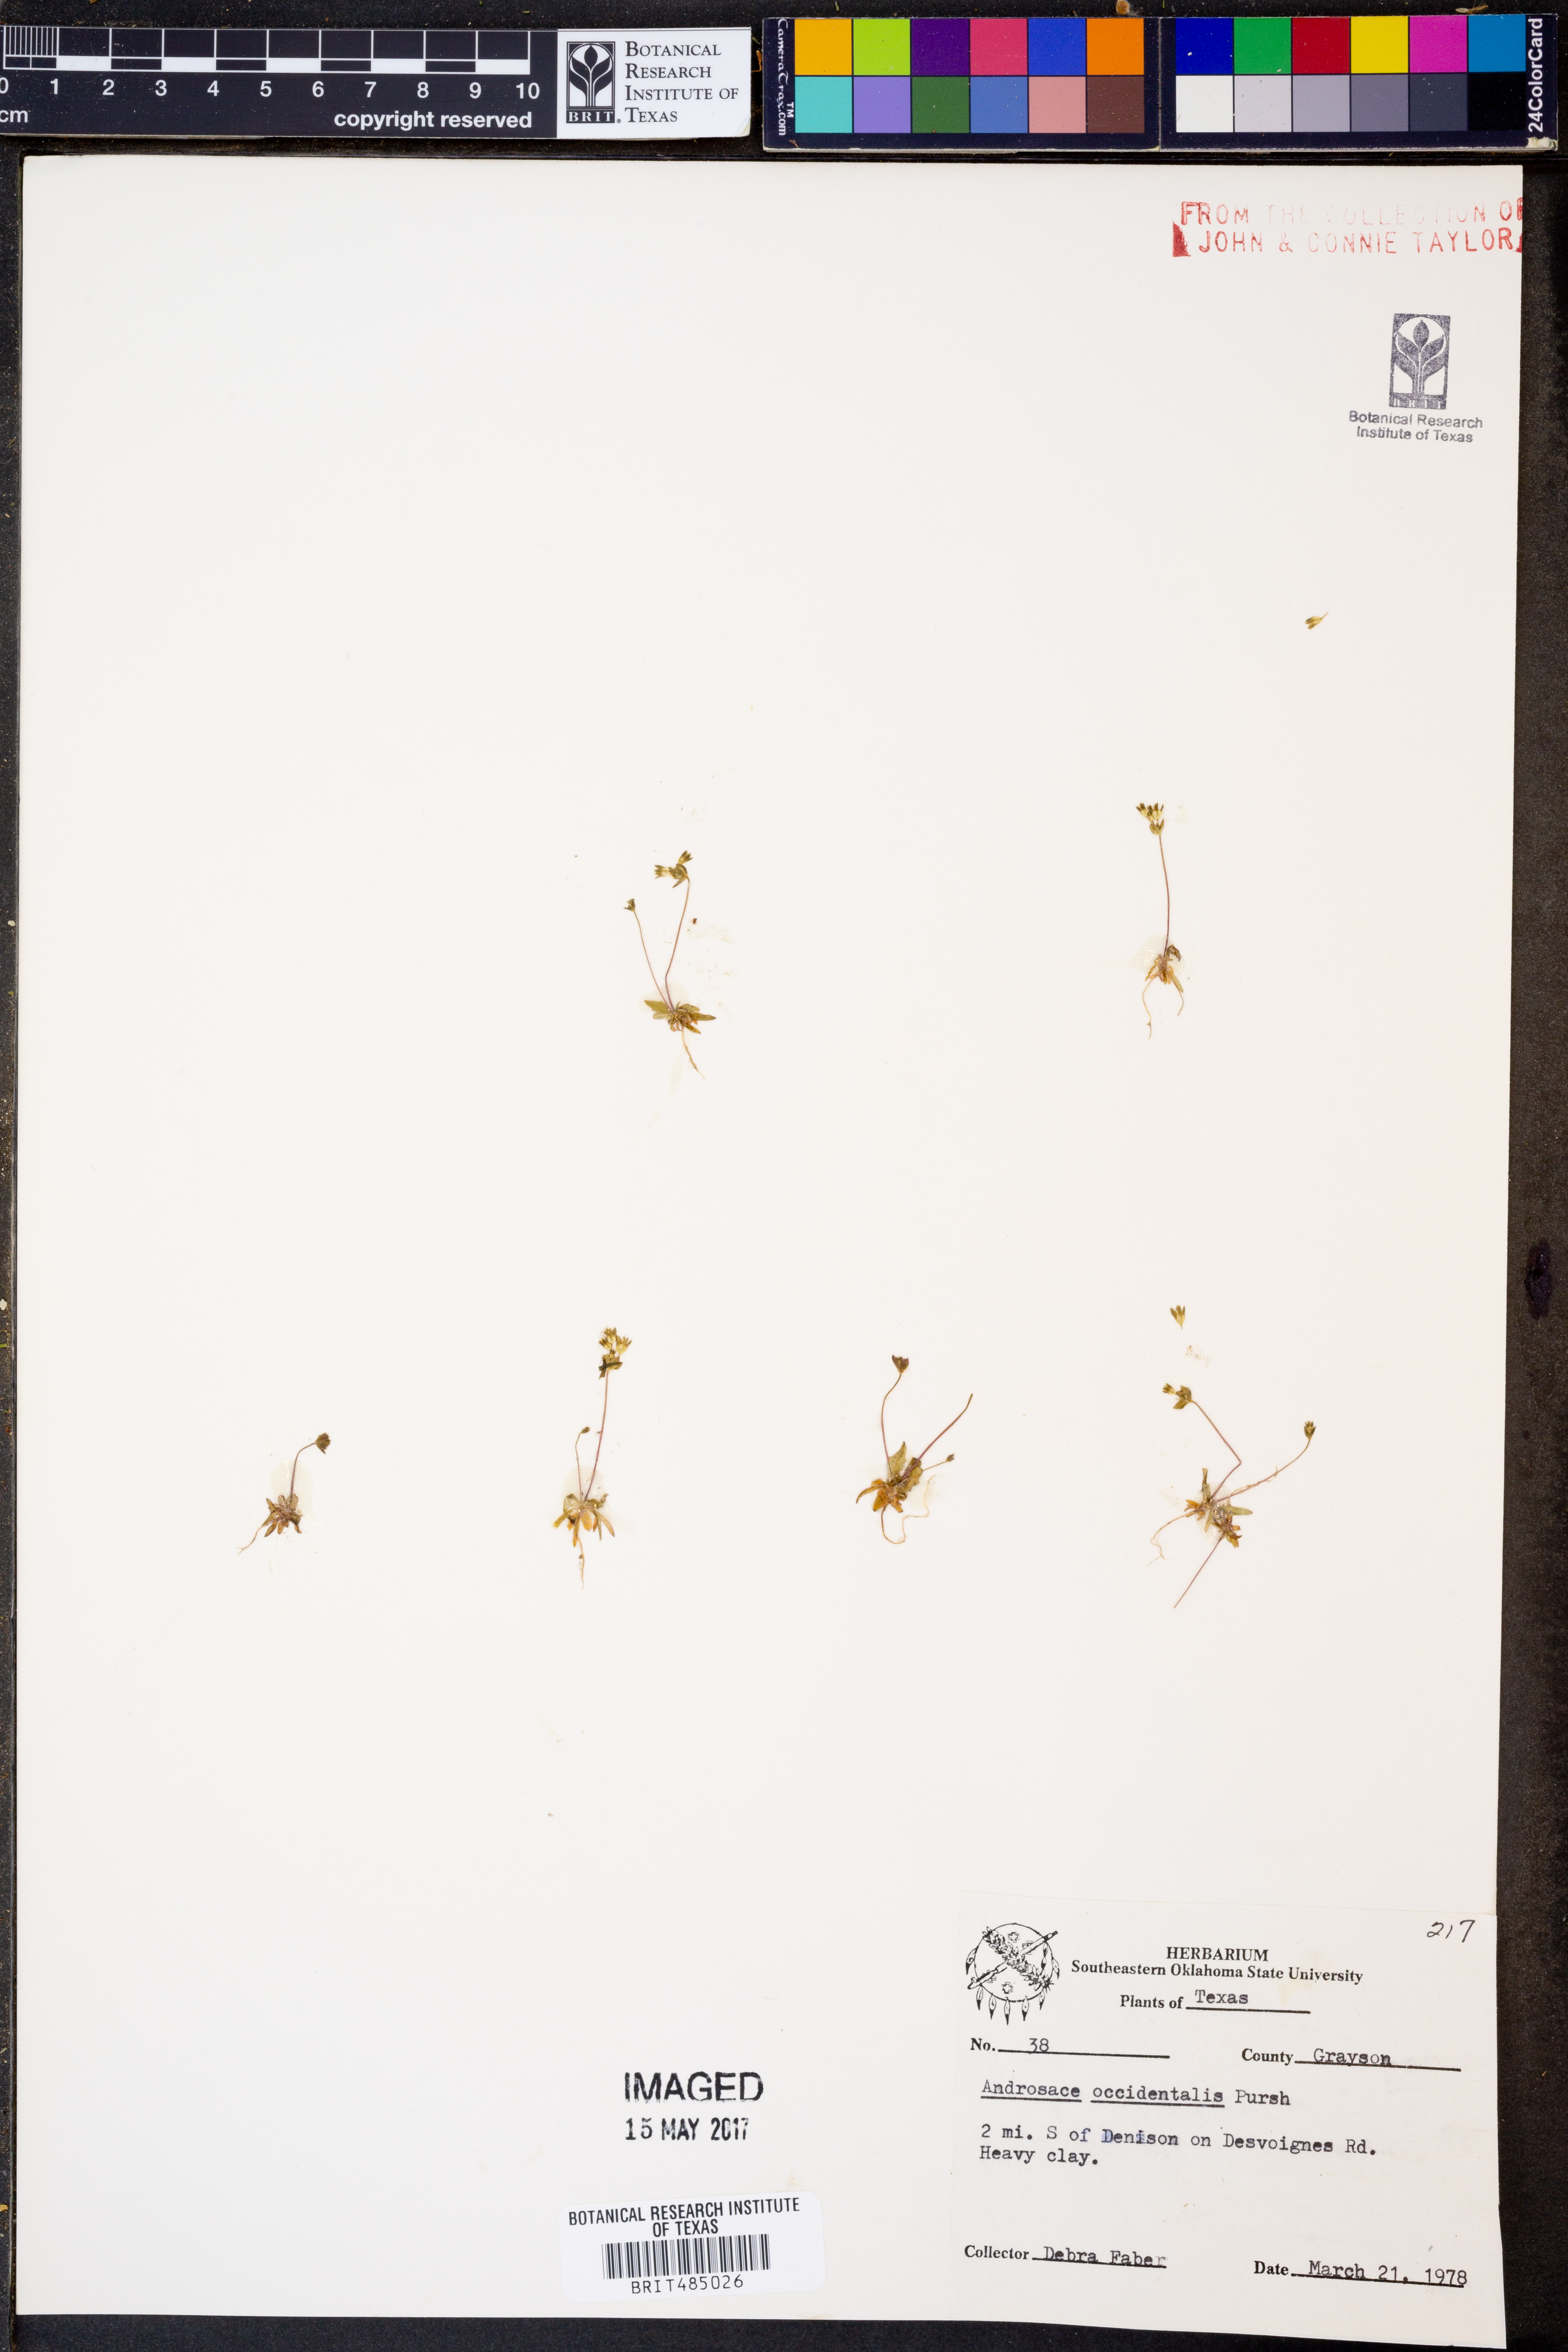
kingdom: Plantae
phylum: Tracheophyta
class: Magnoliopsida
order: Ericales
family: Primulaceae
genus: Androsace
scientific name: Androsace occidentalis
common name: West rock-jasmine
